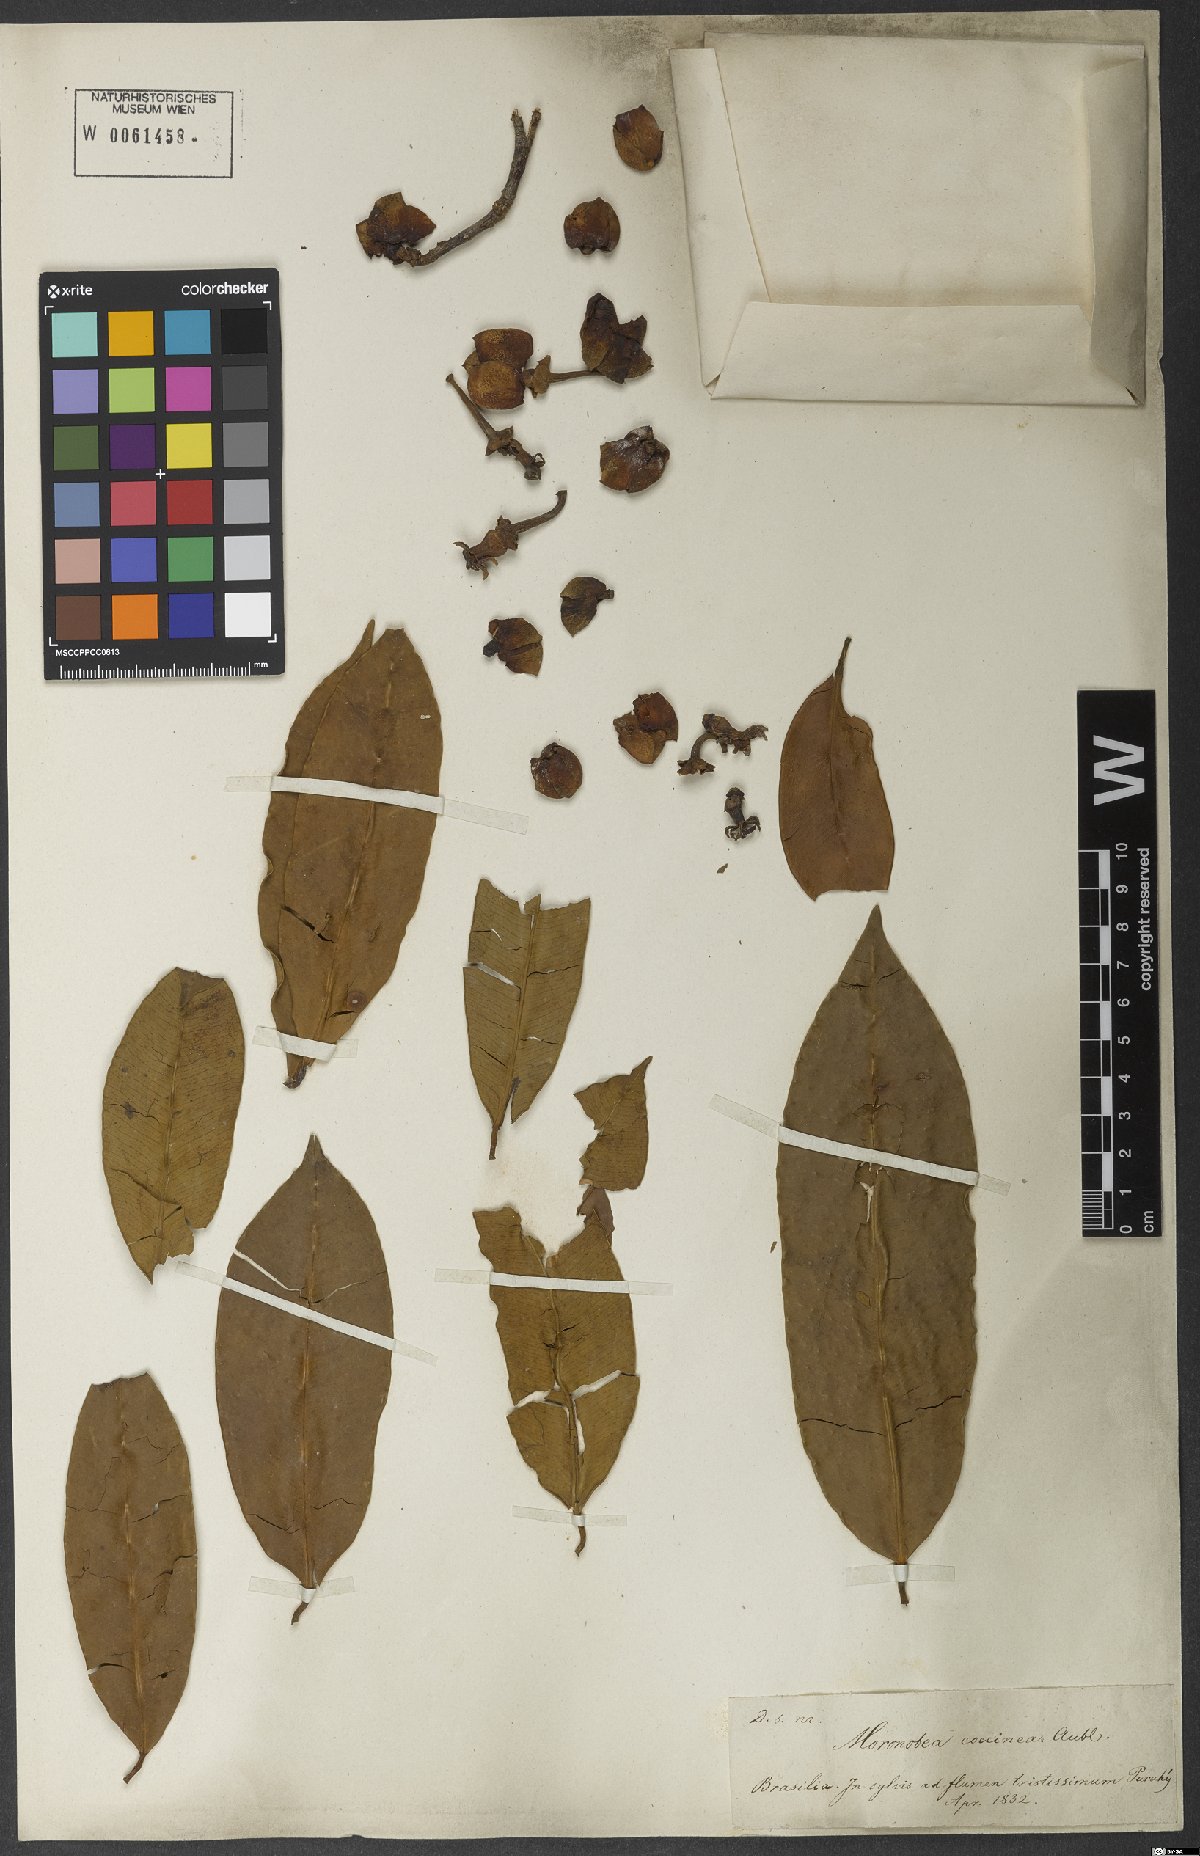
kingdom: Plantae
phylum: Tracheophyta
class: Magnoliopsida
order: Malpighiales
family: Clusiaceae
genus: Moronobea
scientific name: Moronobea coccinea
